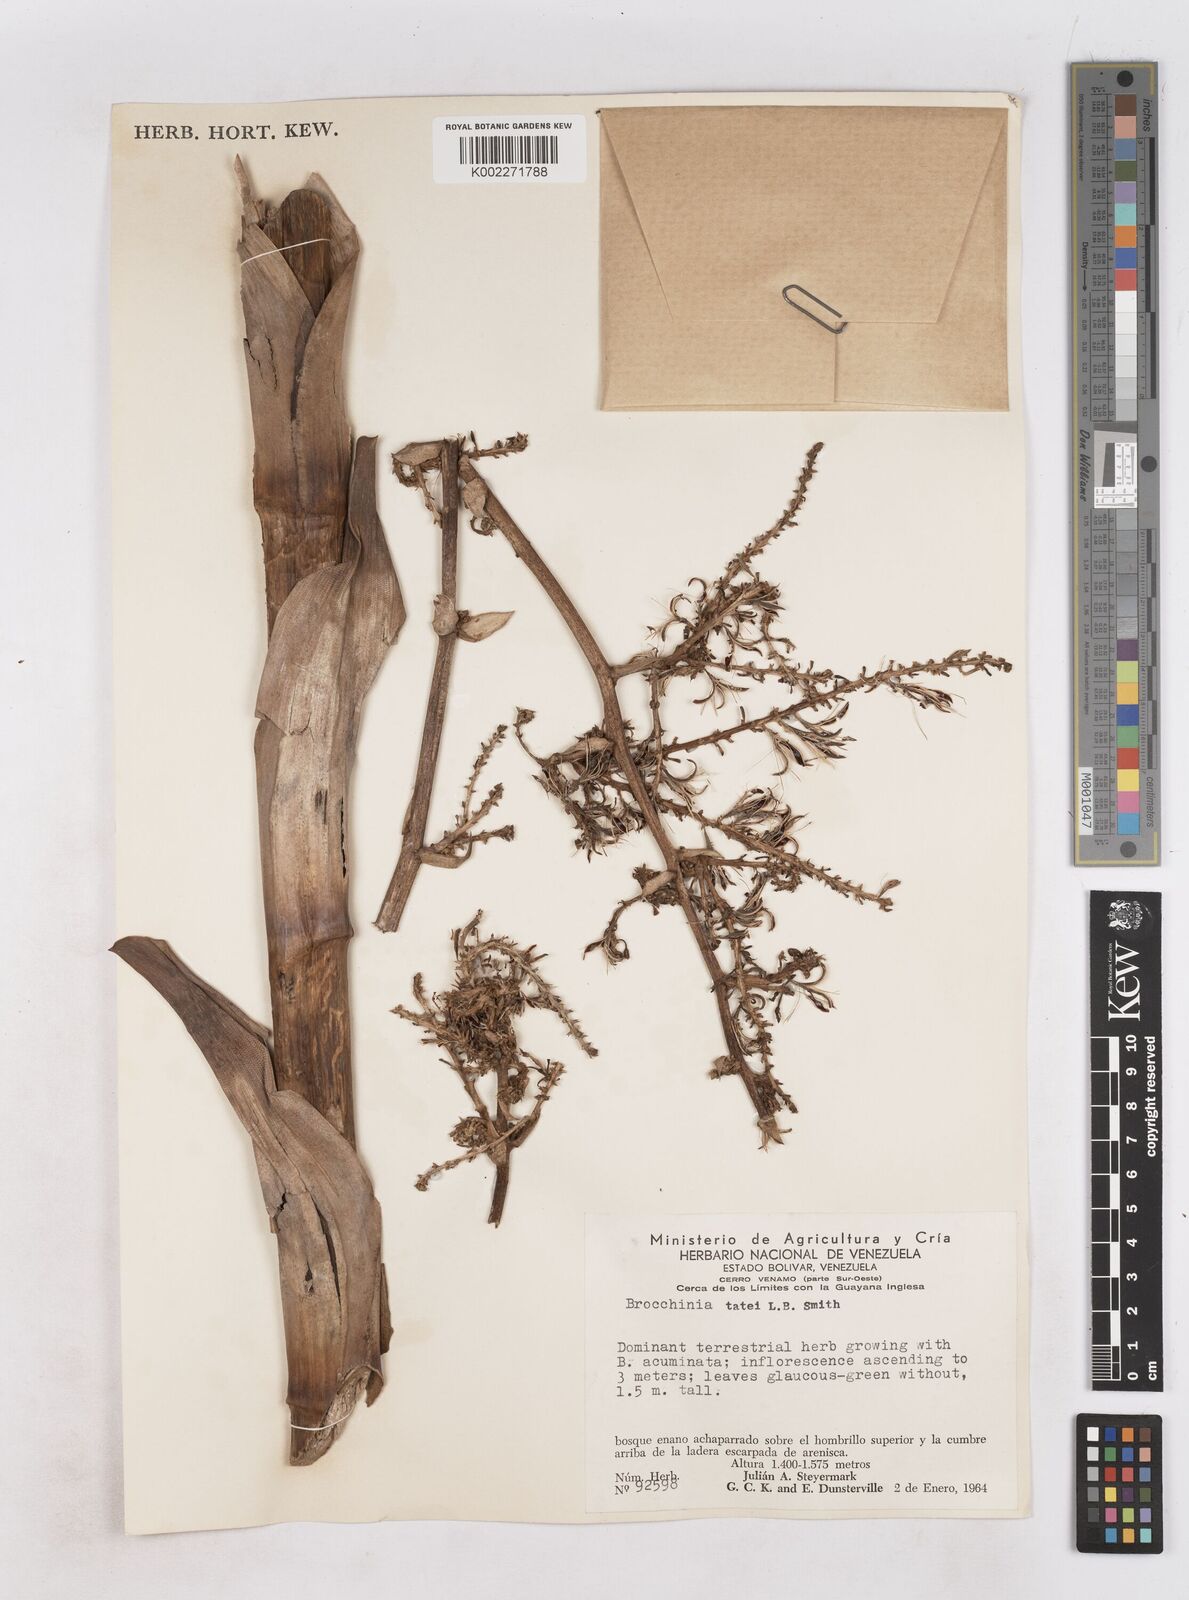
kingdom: Plantae
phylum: Tracheophyta
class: Liliopsida
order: Poales
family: Bromeliaceae
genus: Brocchinia
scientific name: Brocchinia tatei
